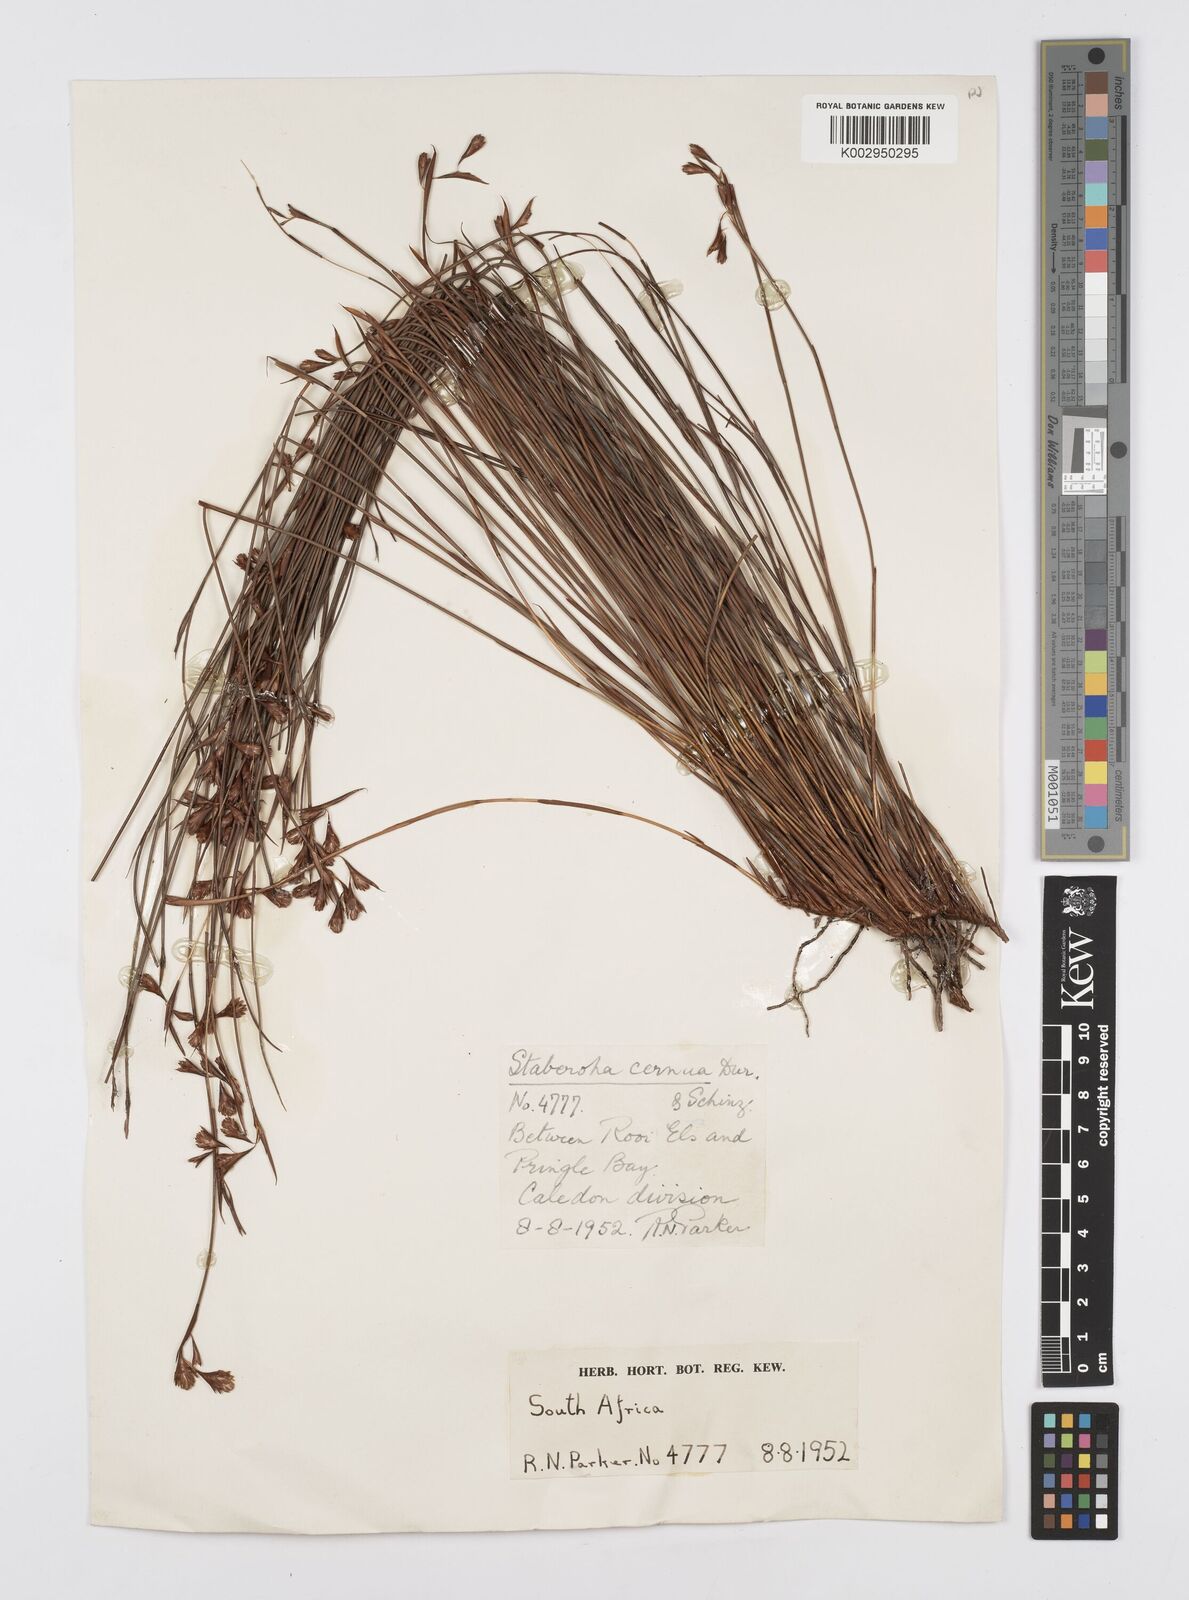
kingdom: Plantae
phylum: Tracheophyta
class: Liliopsida
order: Poales
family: Restionaceae
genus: Staberoha
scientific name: Staberoha cernua
